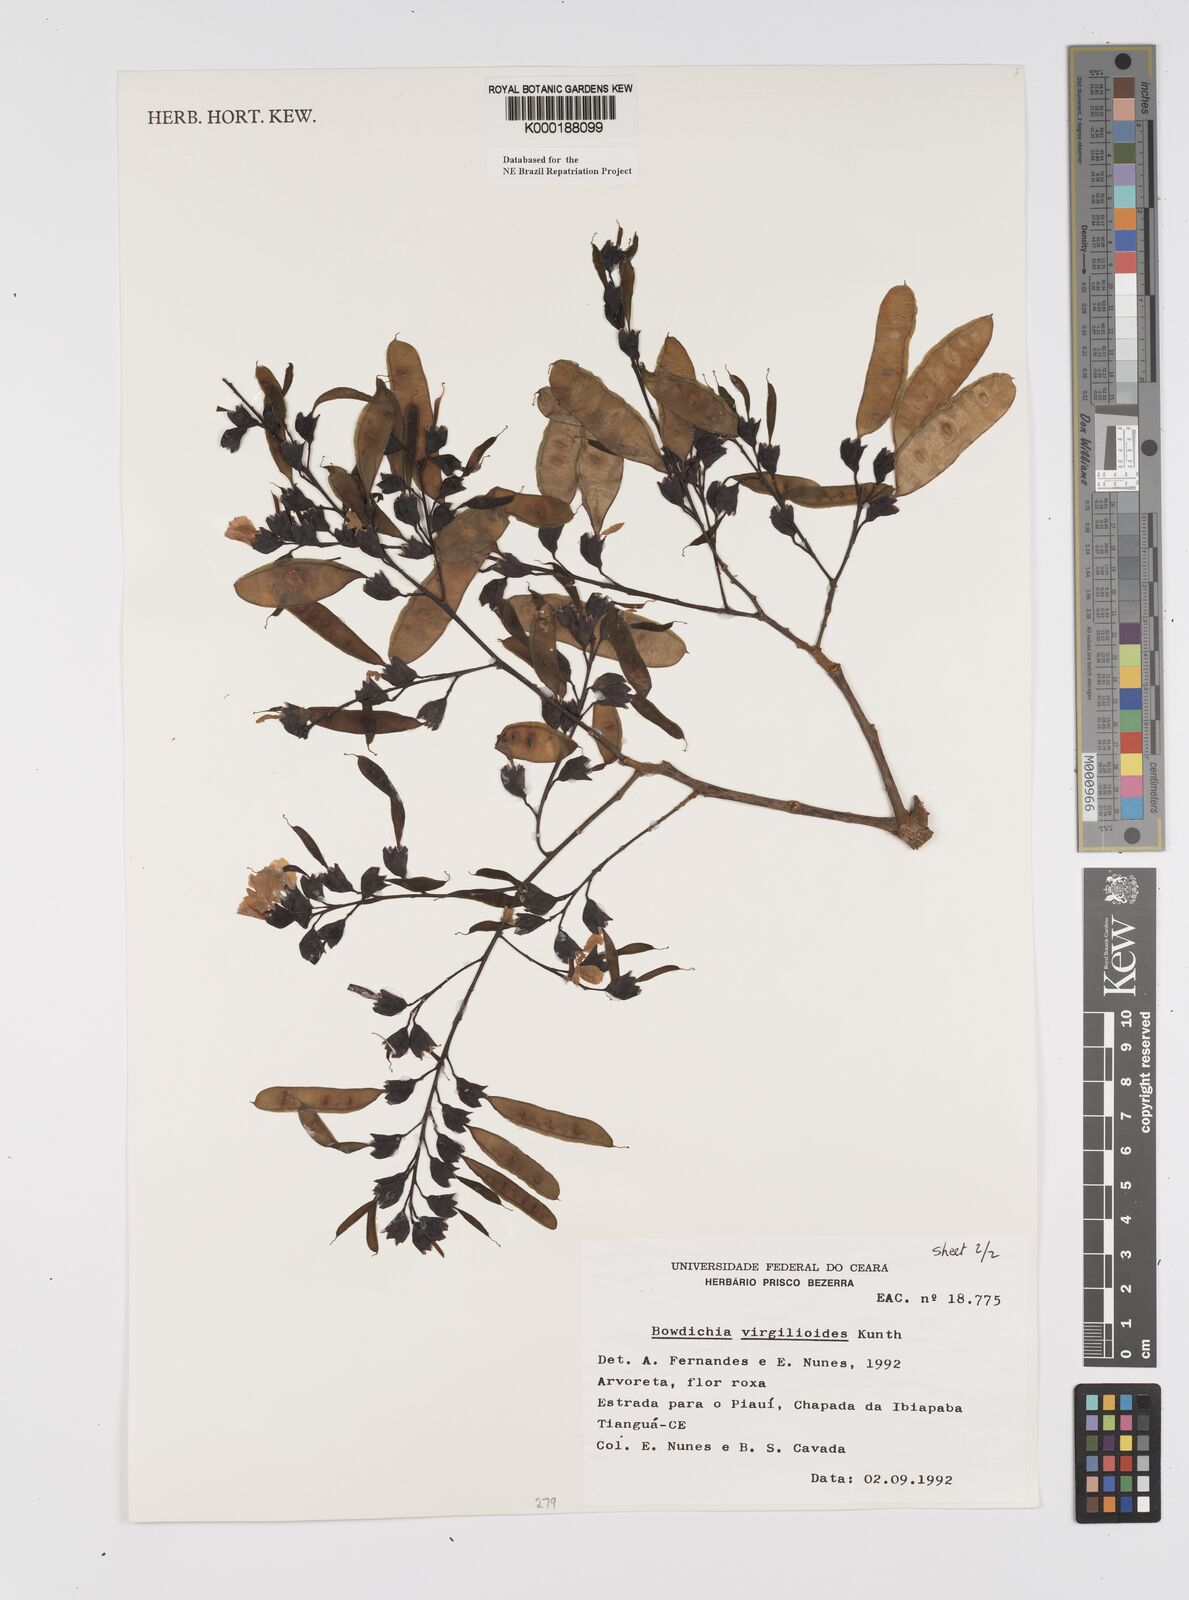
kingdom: Plantae
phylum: Tracheophyta
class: Magnoliopsida
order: Fabales
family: Fabaceae
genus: Bowdichia
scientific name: Bowdichia virgilioides
